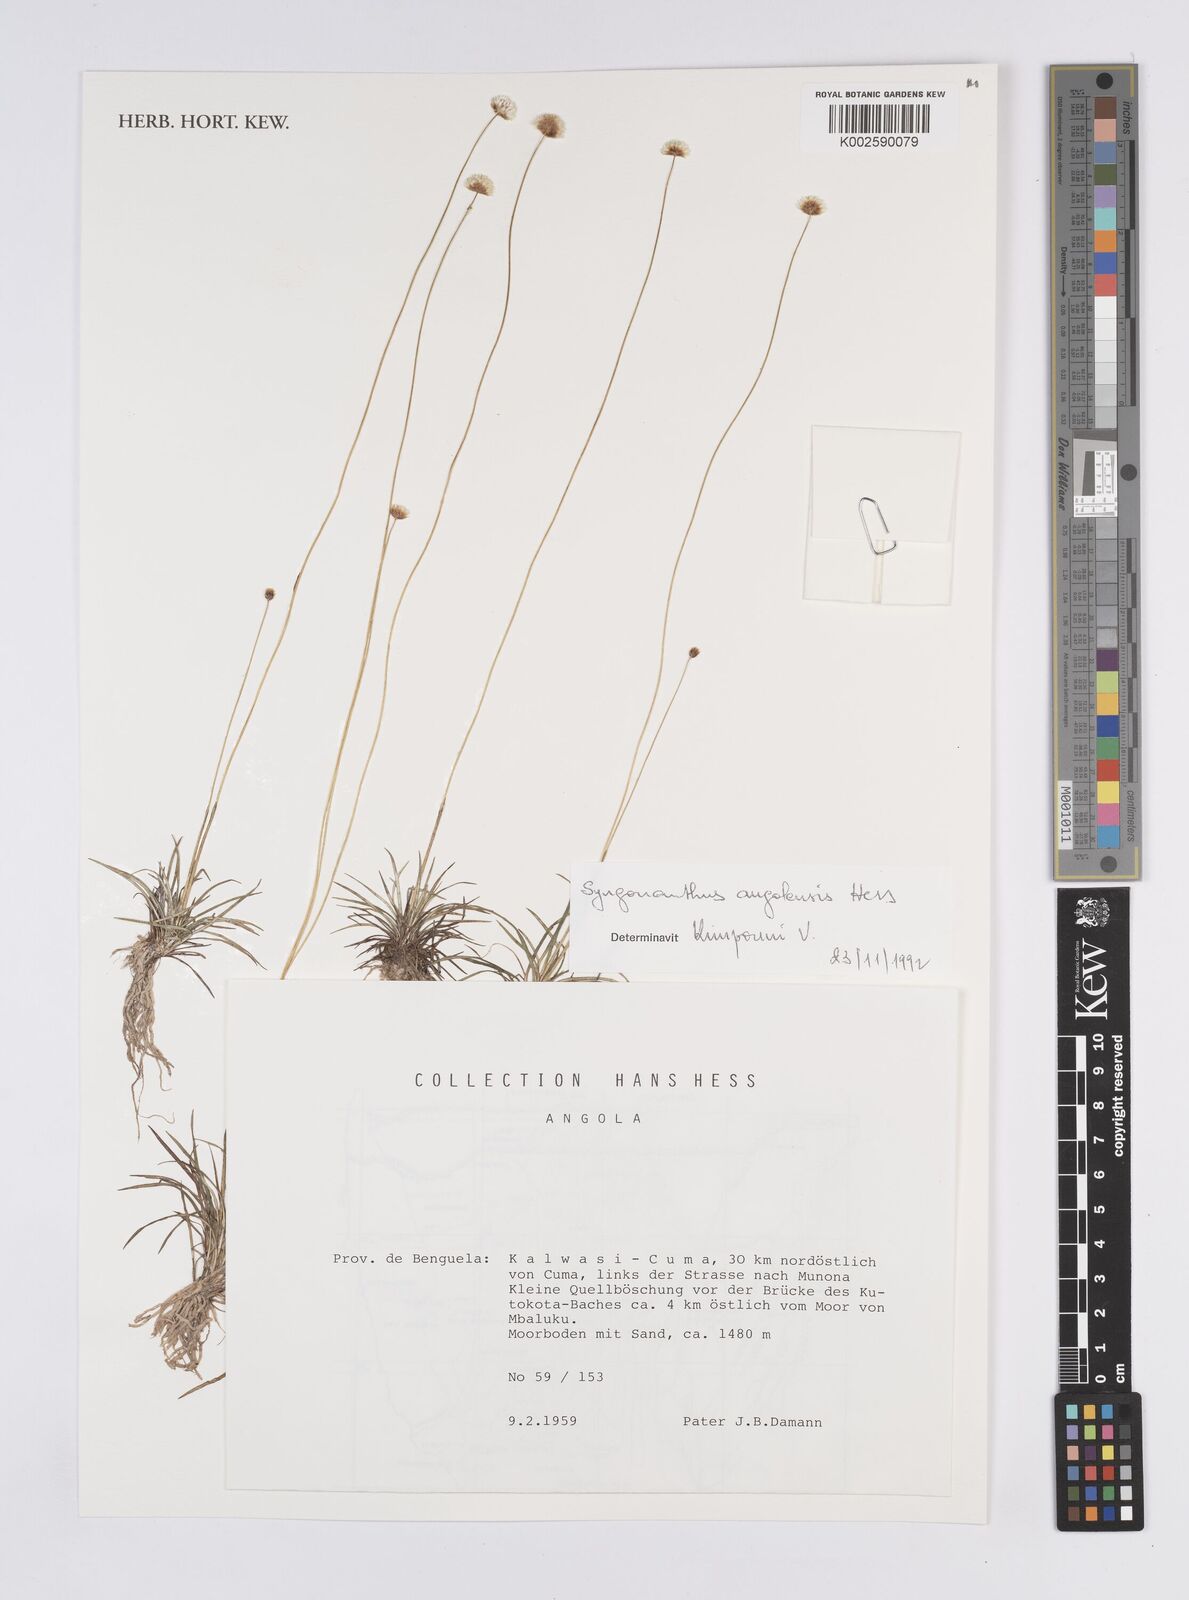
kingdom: Plantae
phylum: Tracheophyta
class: Liliopsida
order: Poales
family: Eriocaulaceae
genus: Syngonanthus
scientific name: Syngonanthus angolensis
